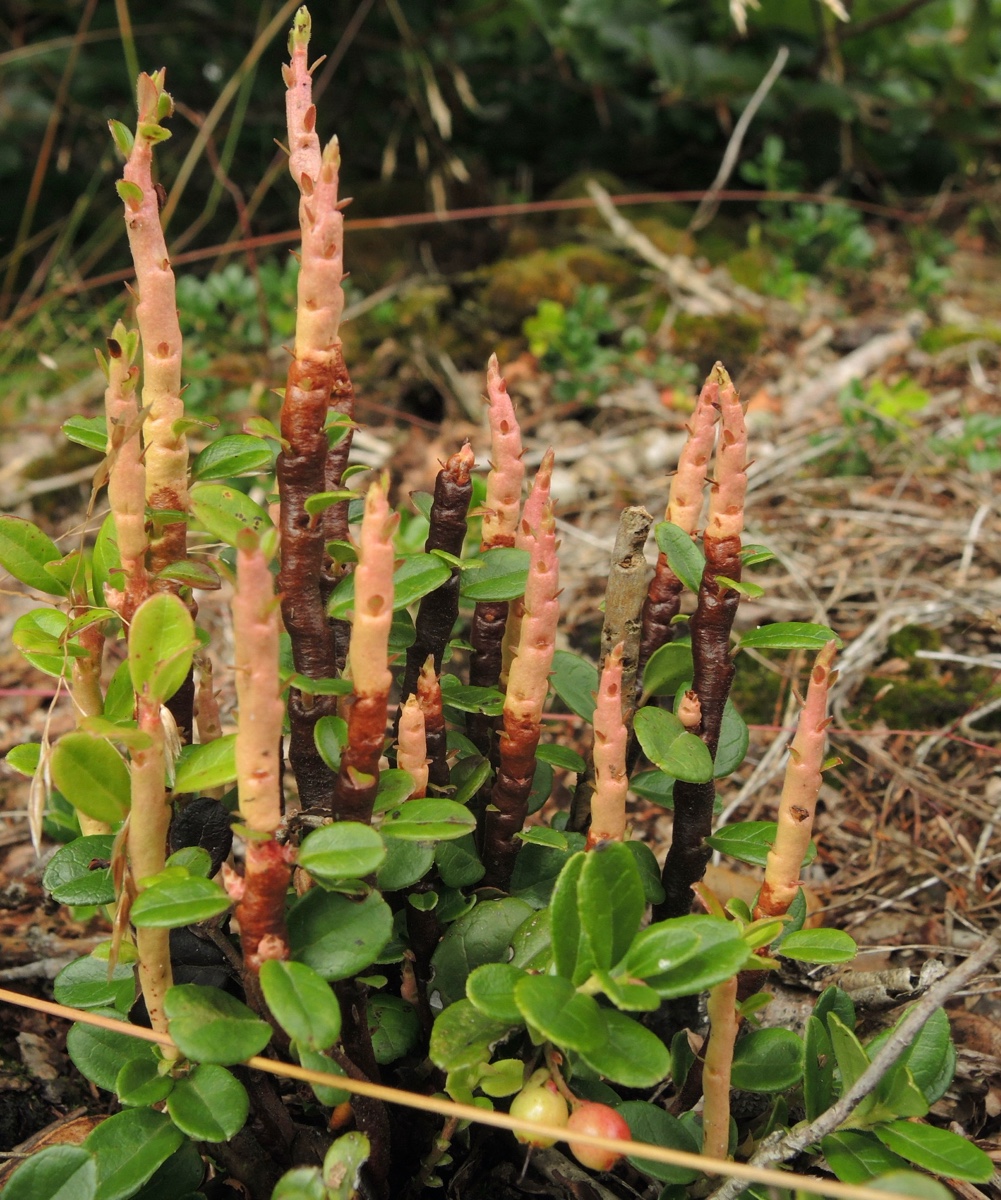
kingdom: Fungi
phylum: Basidiomycota
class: Pucciniomycetes
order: Pucciniales
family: Pucciniastraceae
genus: Calyptospora
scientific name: Calyptospora columnaris
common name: Huckleberry broom rust fungus
